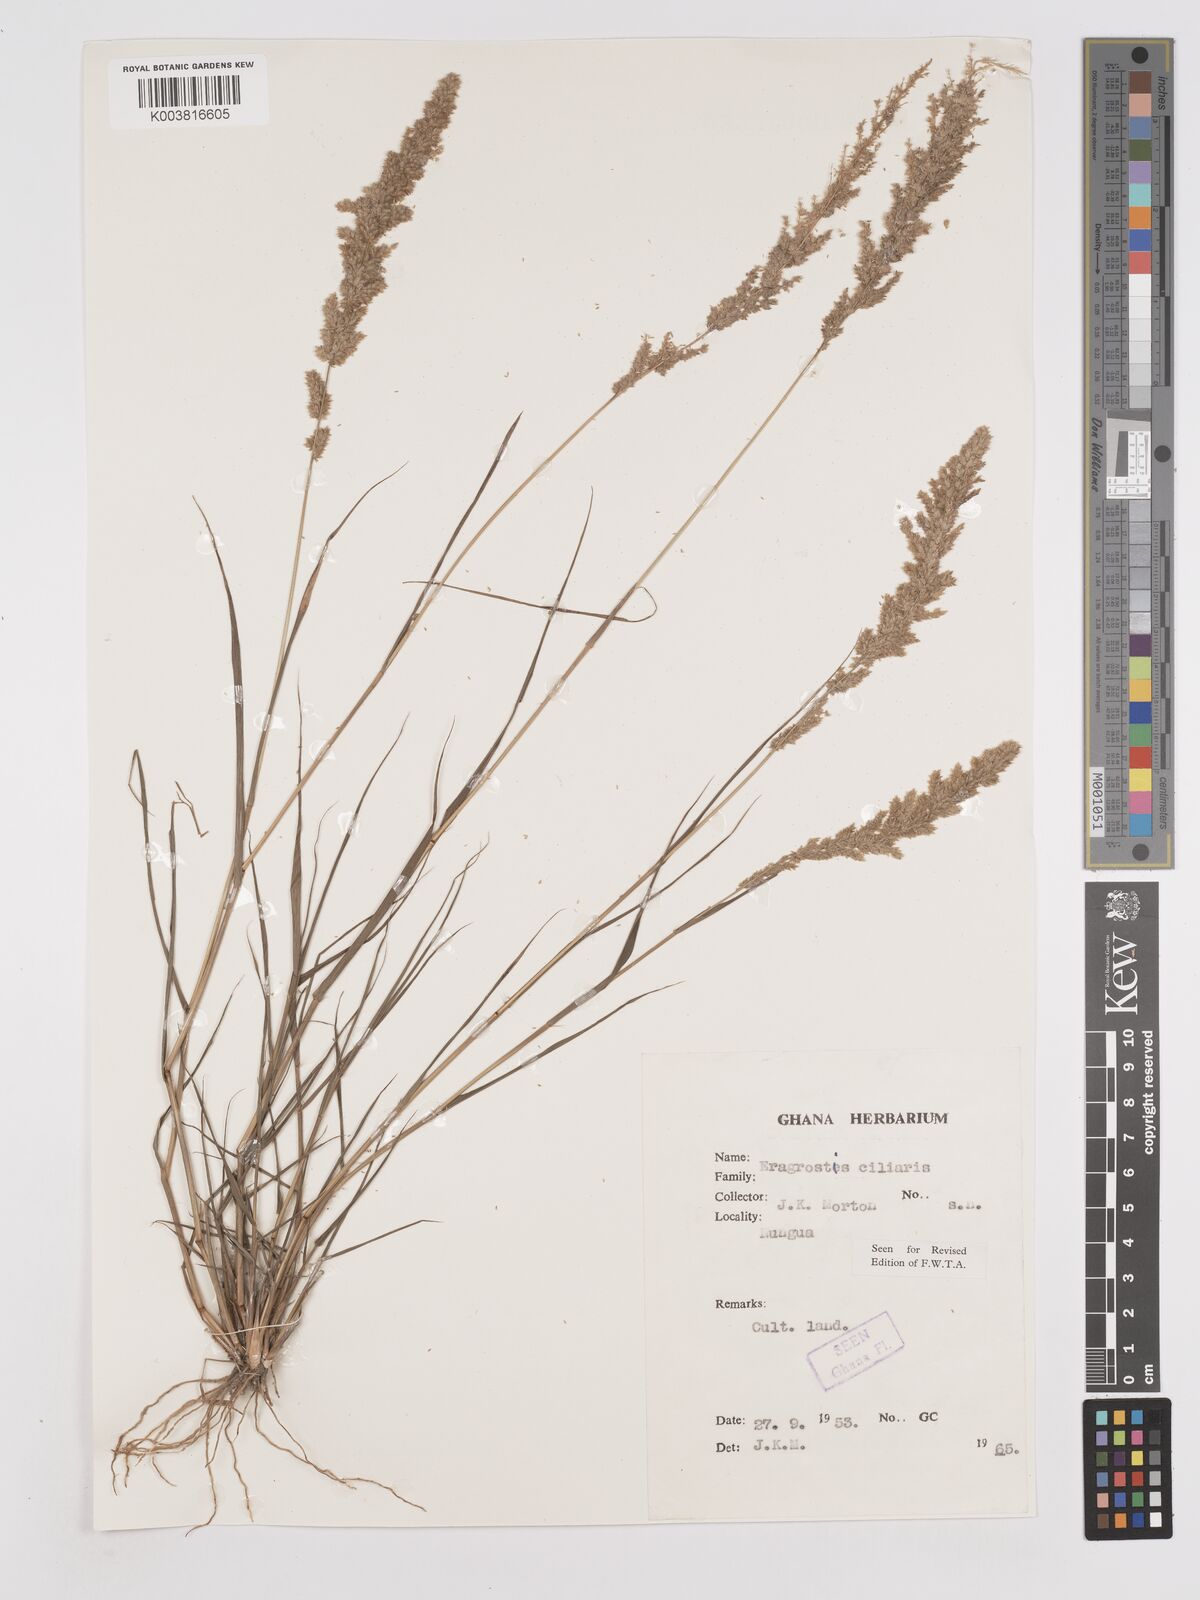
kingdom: Plantae
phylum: Tracheophyta
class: Liliopsida
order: Poales
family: Poaceae
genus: Eragrostis
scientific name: Eragrostis ciliaris
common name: Gophertail lovegrass
